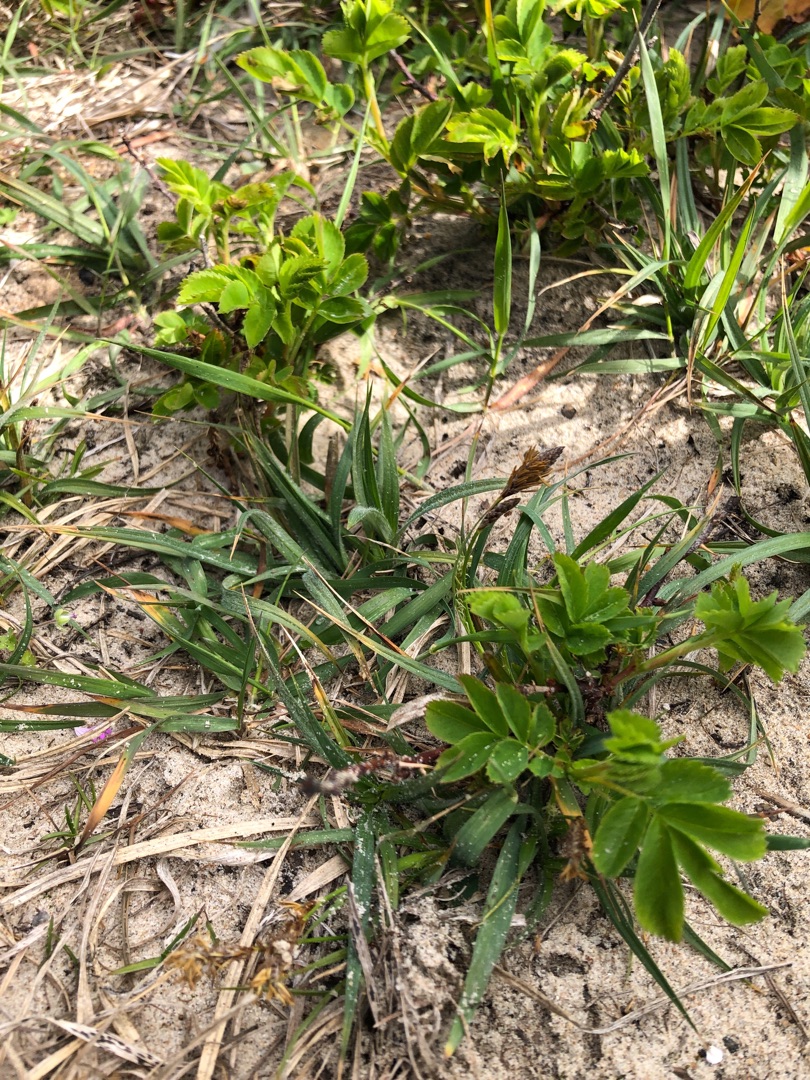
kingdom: Plantae
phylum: Tracheophyta
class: Liliopsida
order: Poales
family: Cyperaceae
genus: Carex
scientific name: Carex hirta
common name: Håret star
